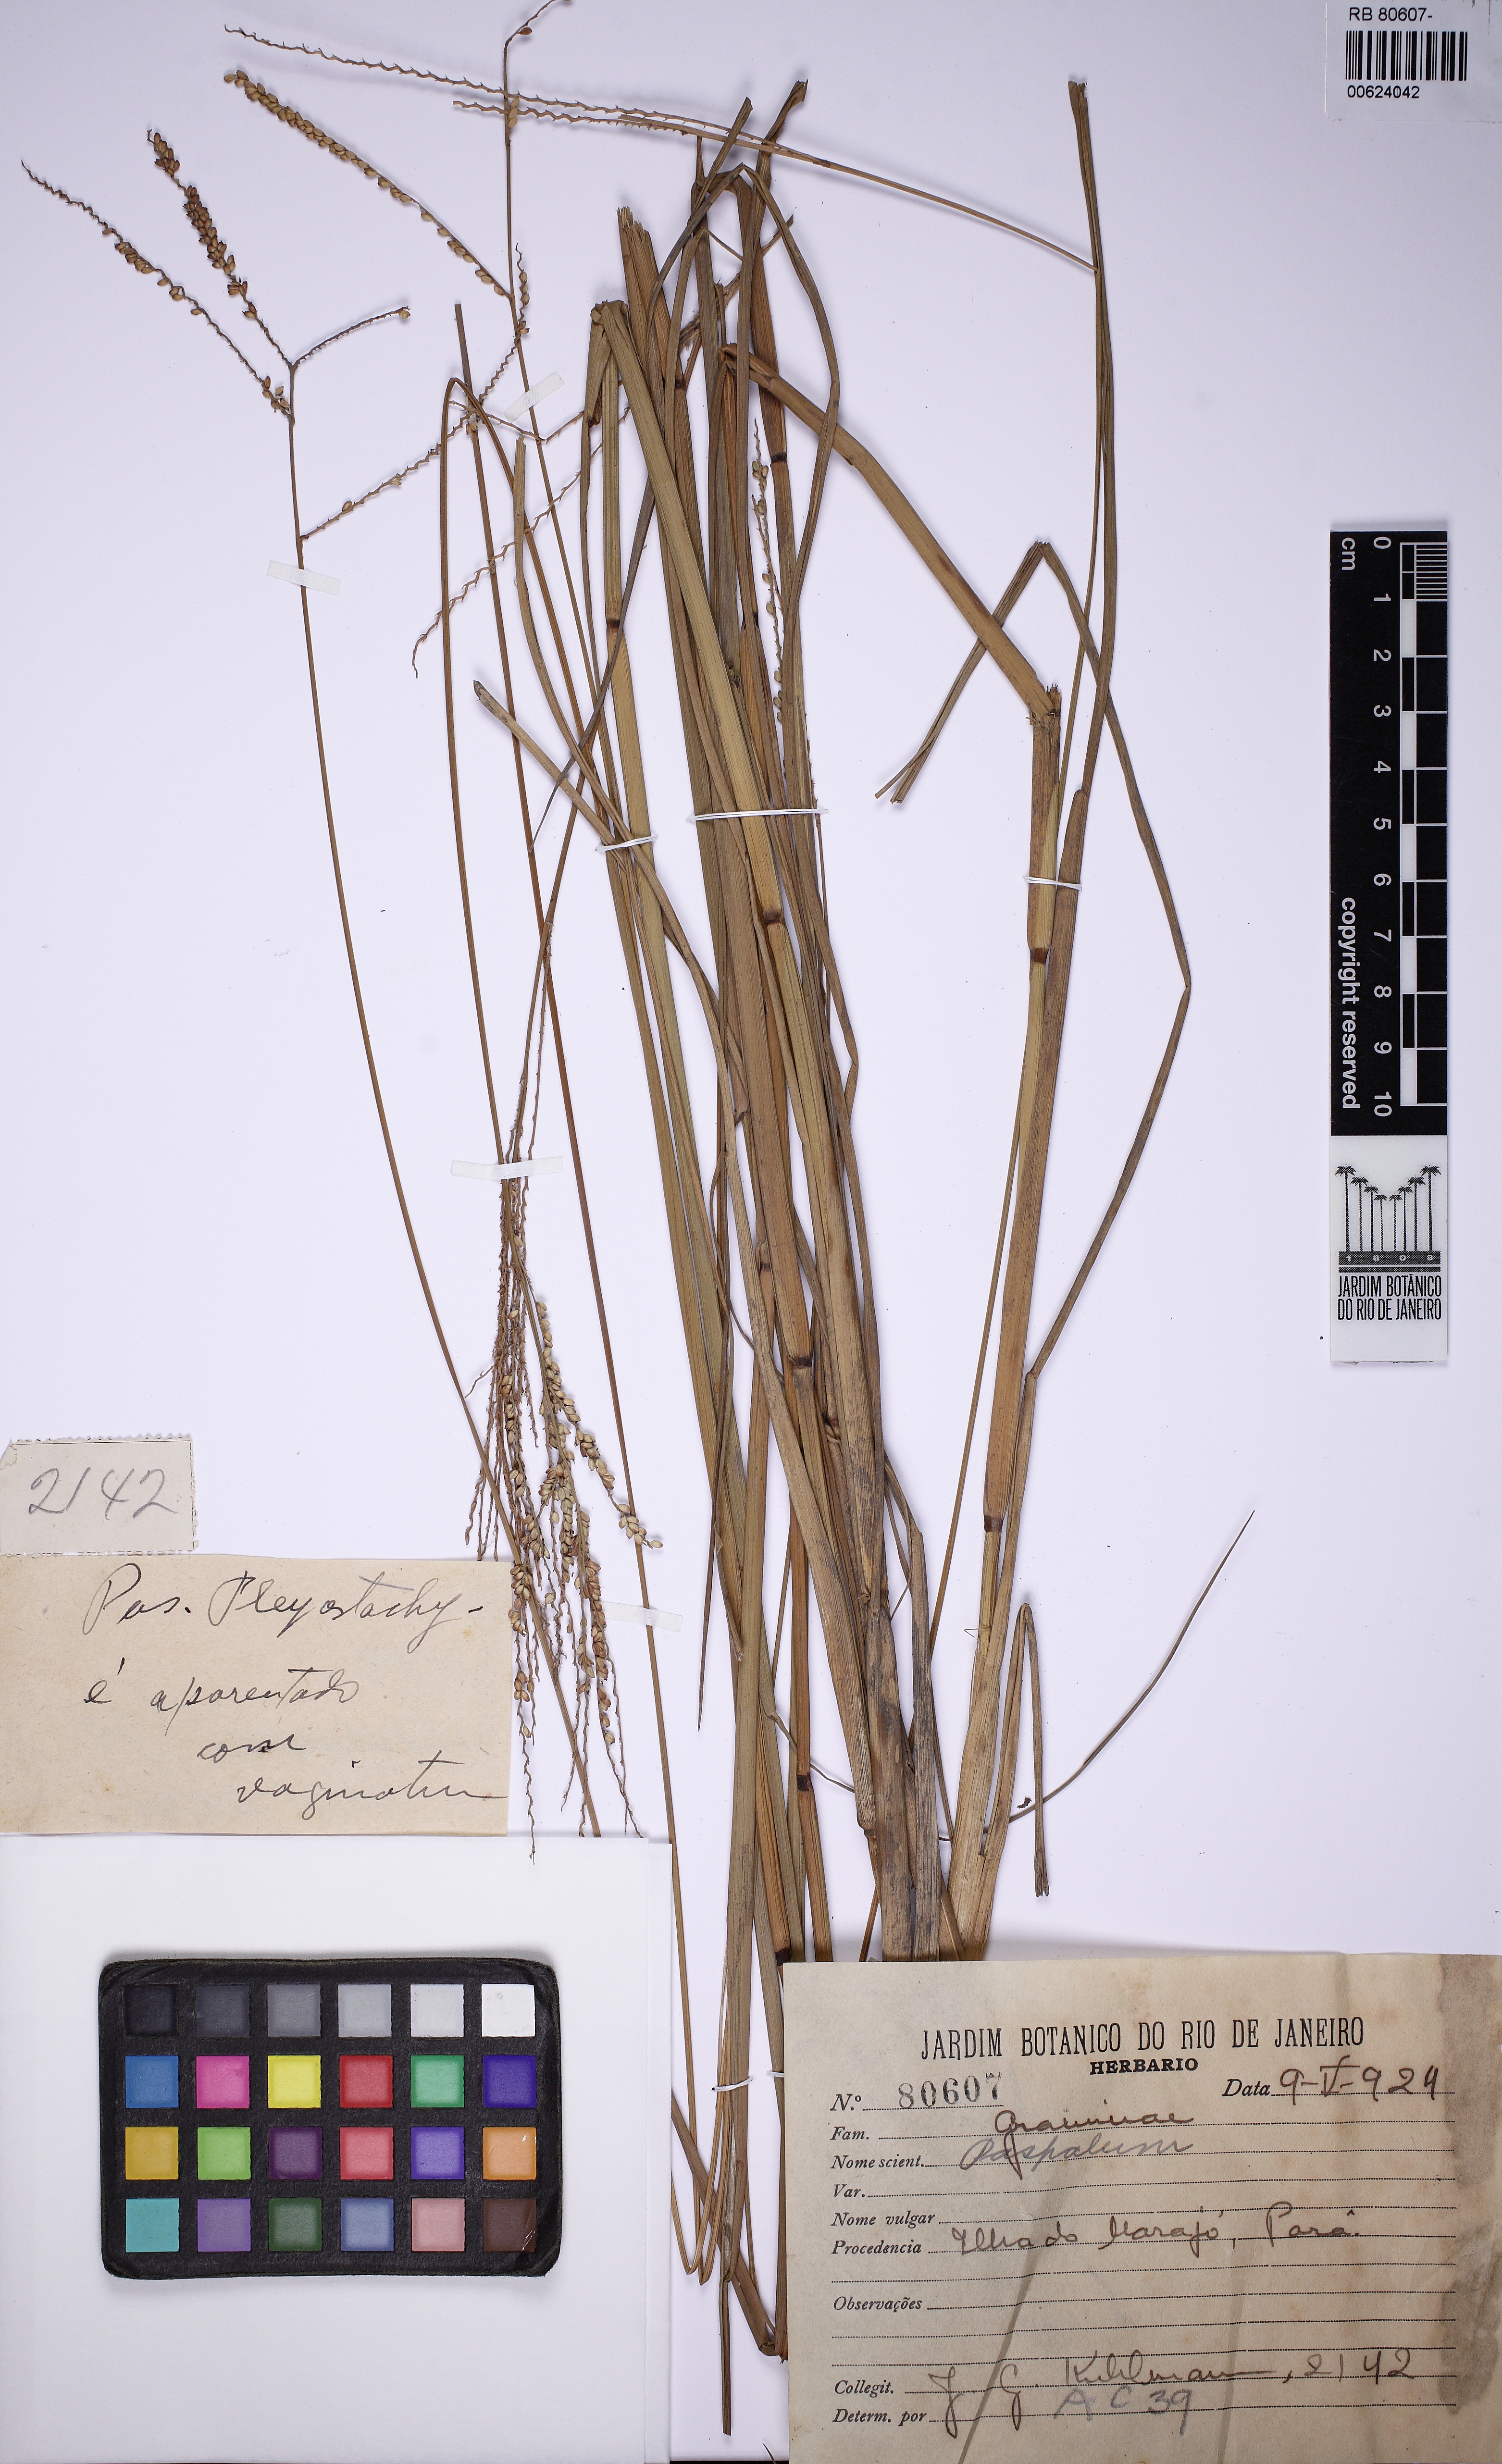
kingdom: Plantae
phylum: Tracheophyta
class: Liliopsida
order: Poales
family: Poaceae
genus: Paspalum
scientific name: Paspalum
